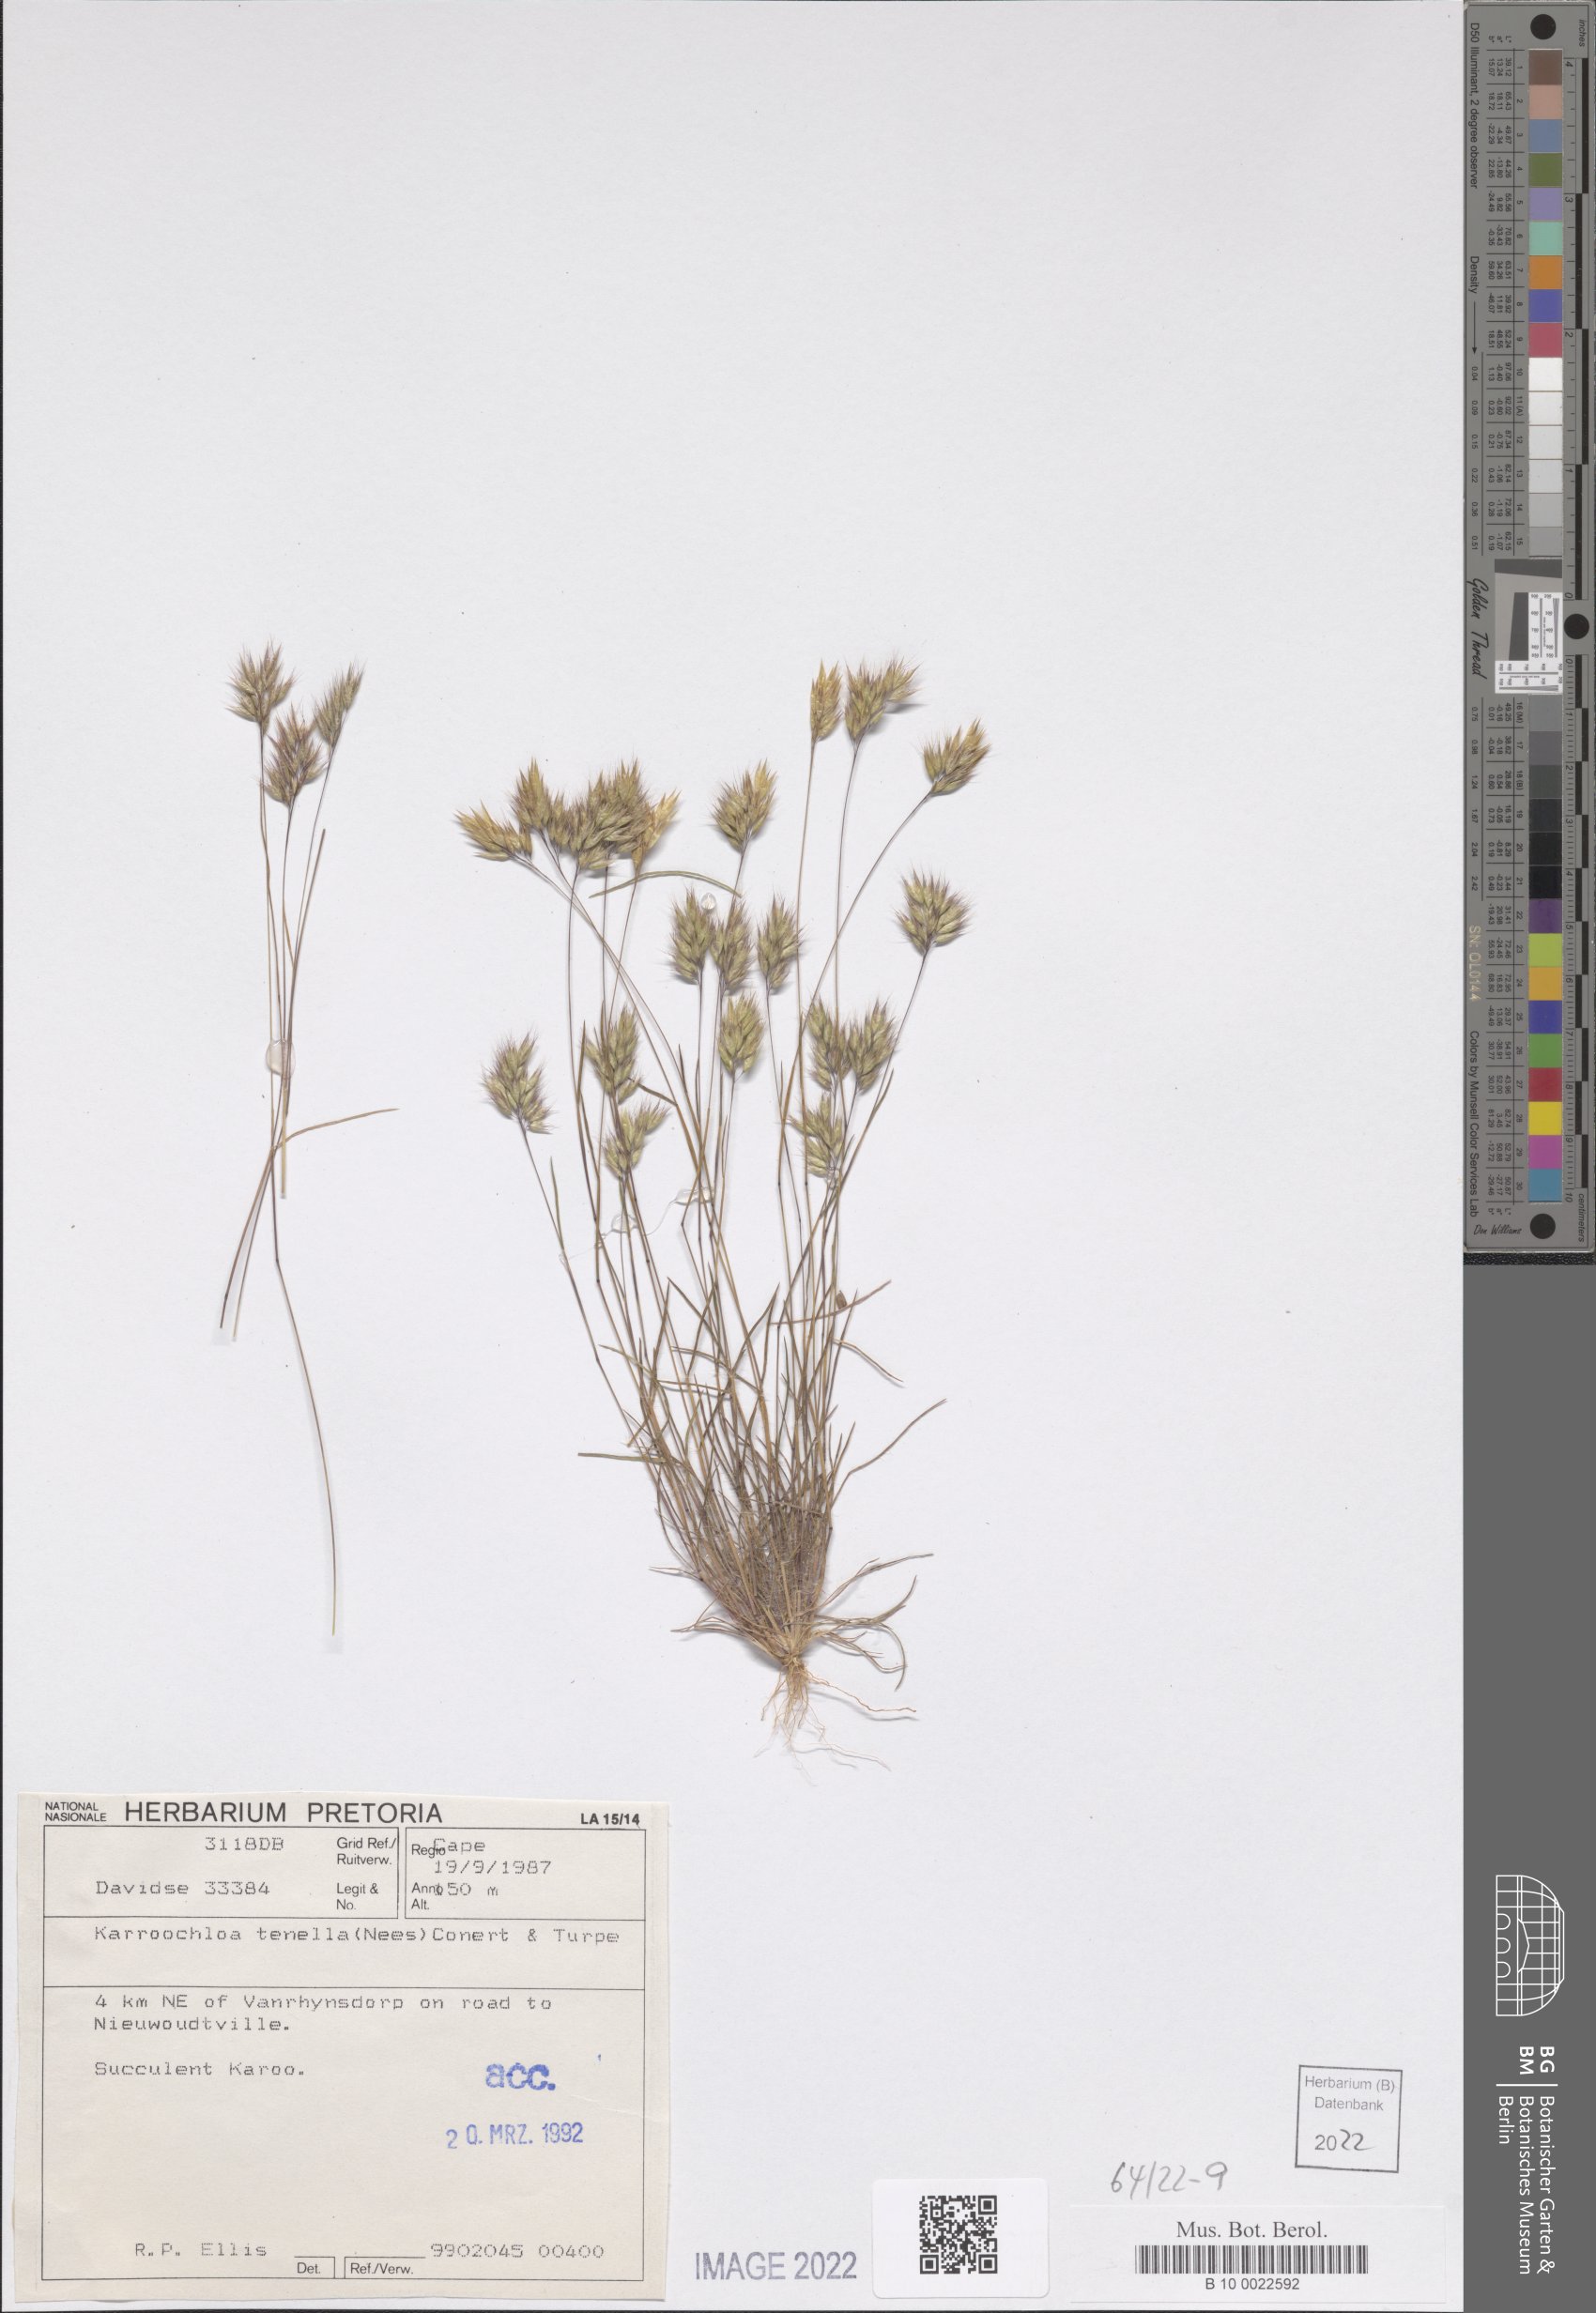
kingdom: Plantae
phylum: Tracheophyta
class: Liliopsida
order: Poales
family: Poaceae
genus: Tribolium
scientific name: Tribolium tenellum
